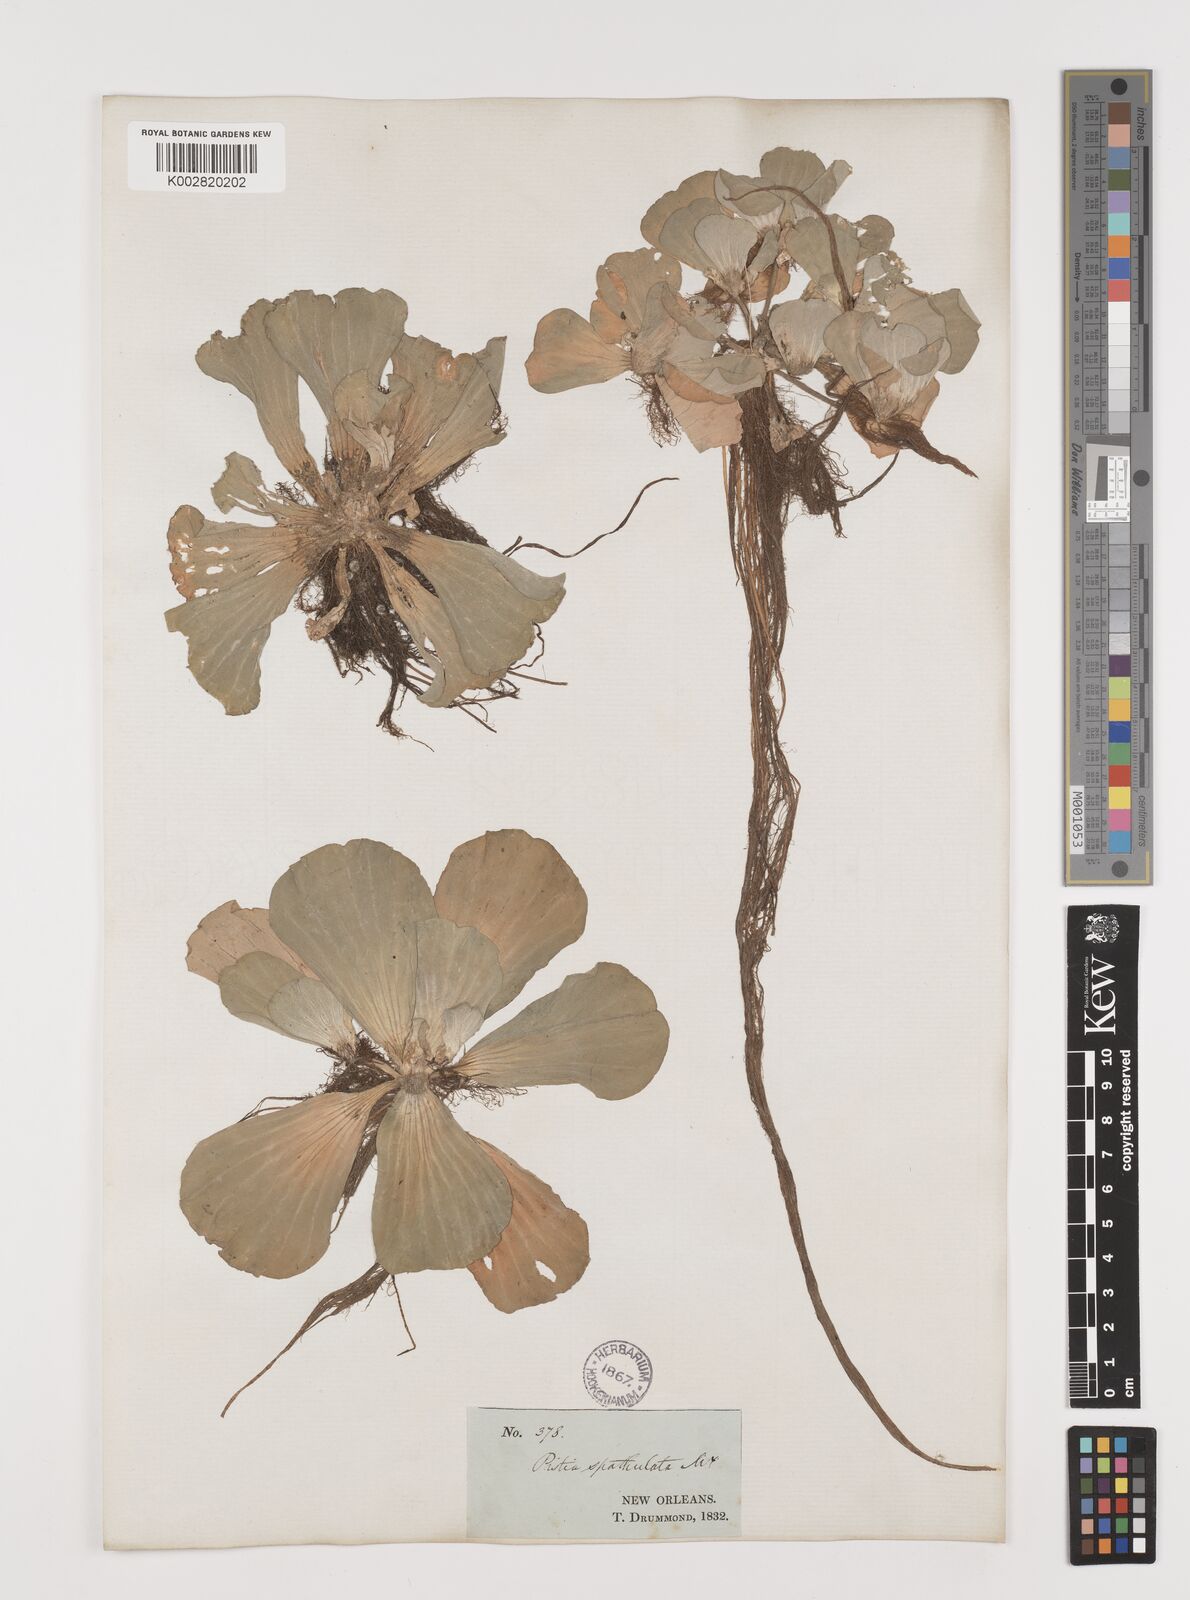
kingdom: Plantae
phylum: Tracheophyta
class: Liliopsida
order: Alismatales
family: Araceae
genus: Pistia
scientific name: Pistia stratiotes
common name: Water lettuce
